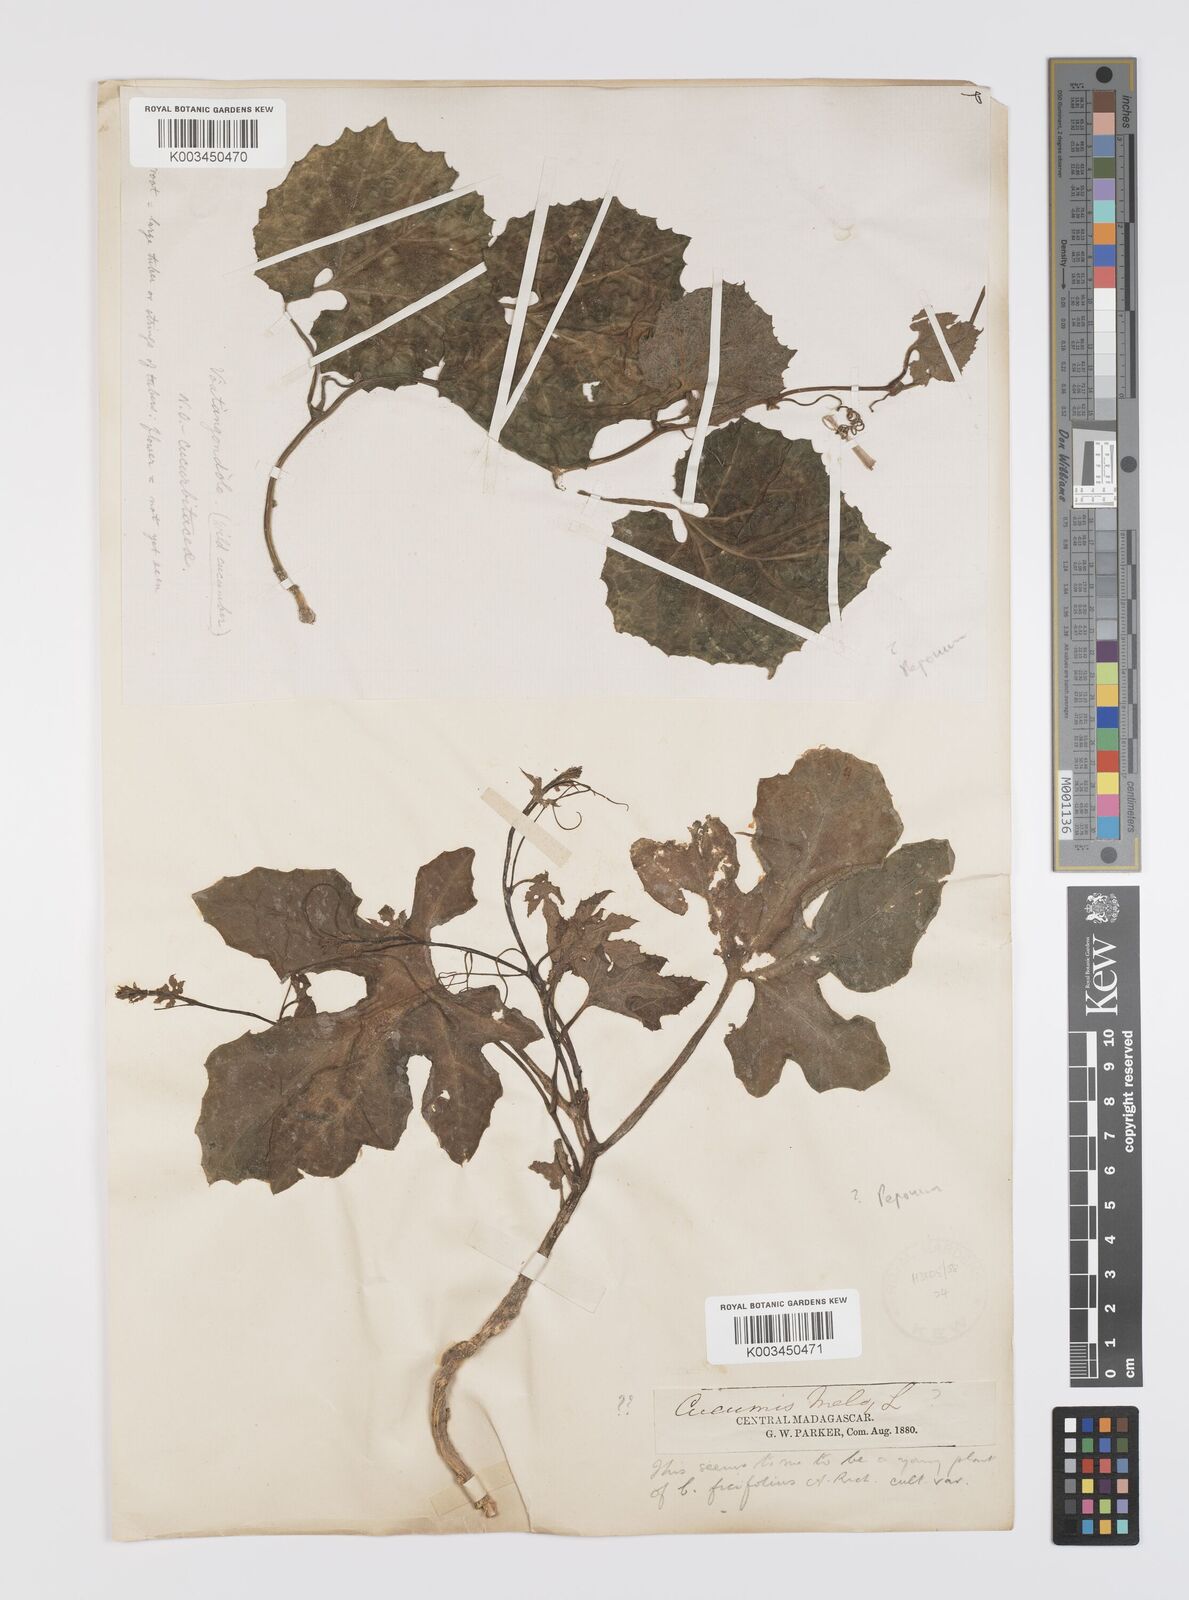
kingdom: Plantae
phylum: Tracheophyta
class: Magnoliopsida
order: Cucurbitales
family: Cucurbitaceae
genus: Peponium
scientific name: Peponium
